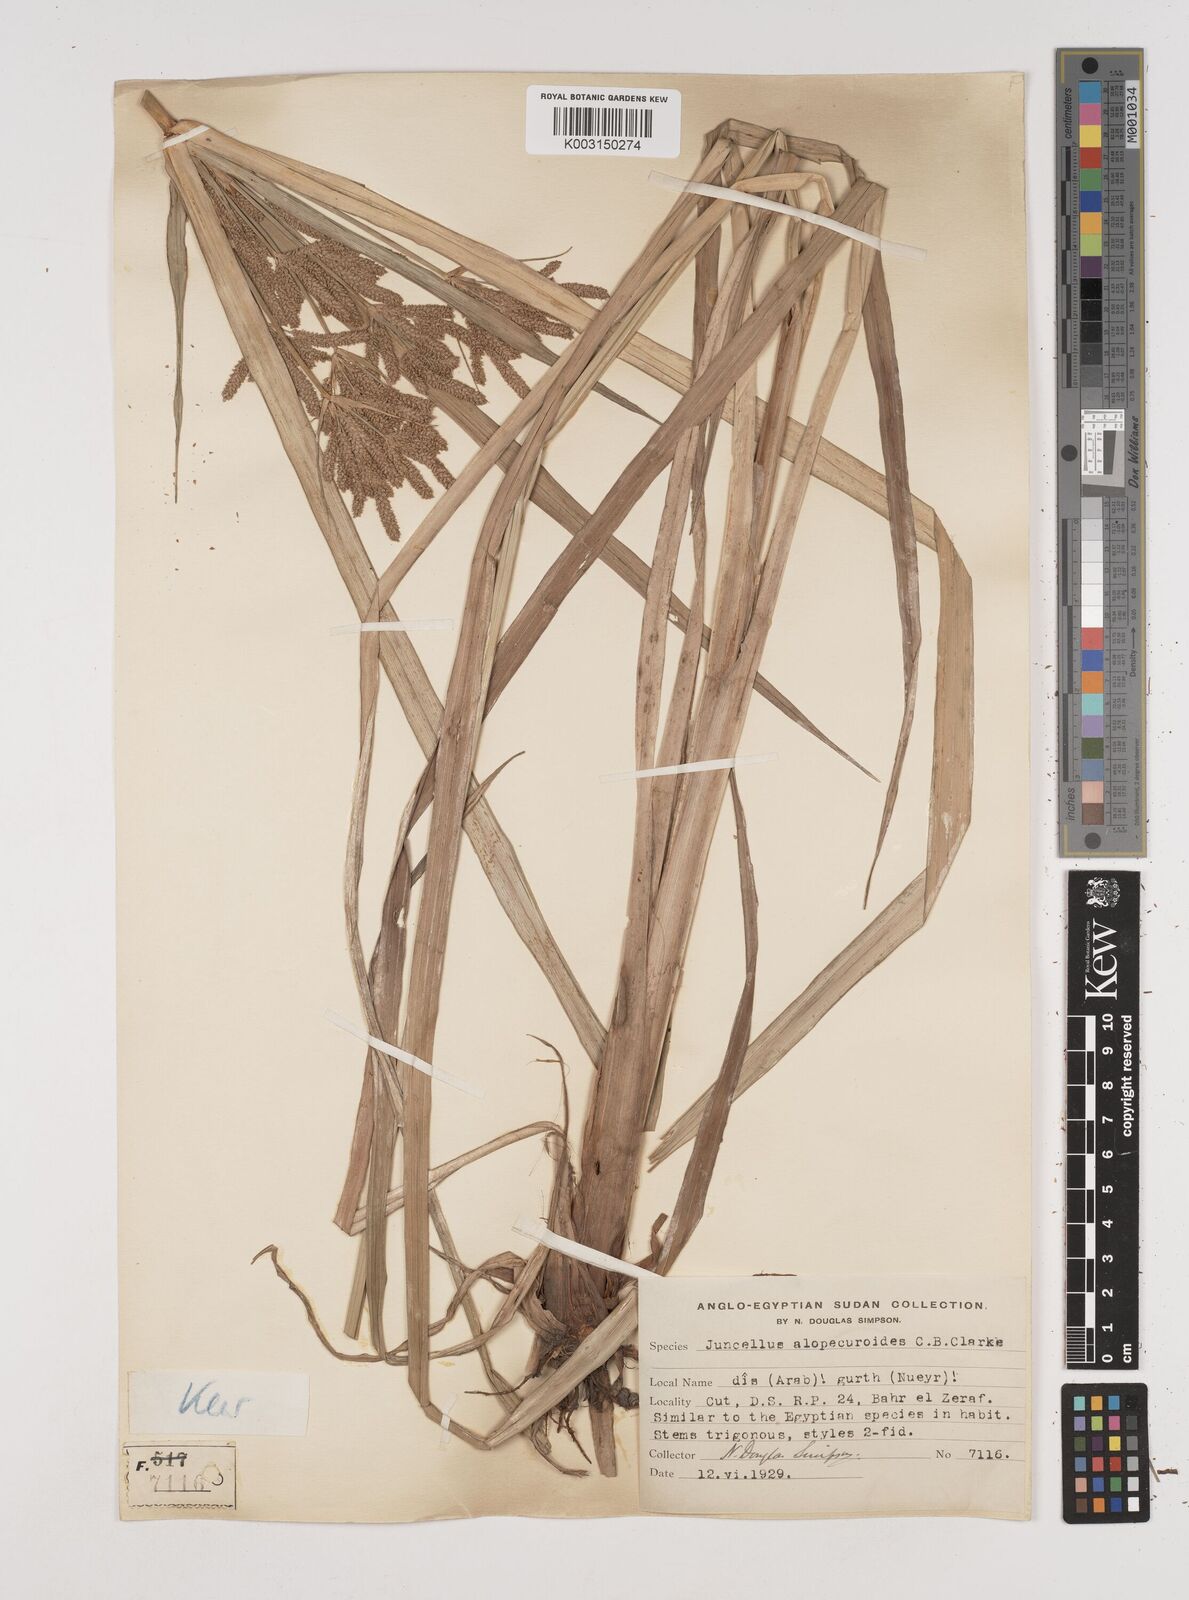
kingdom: Plantae
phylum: Tracheophyta
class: Liliopsida
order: Poales
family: Cyperaceae
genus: Cyperus
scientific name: Cyperus alopecuroides
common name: Foxtail flatsedge
